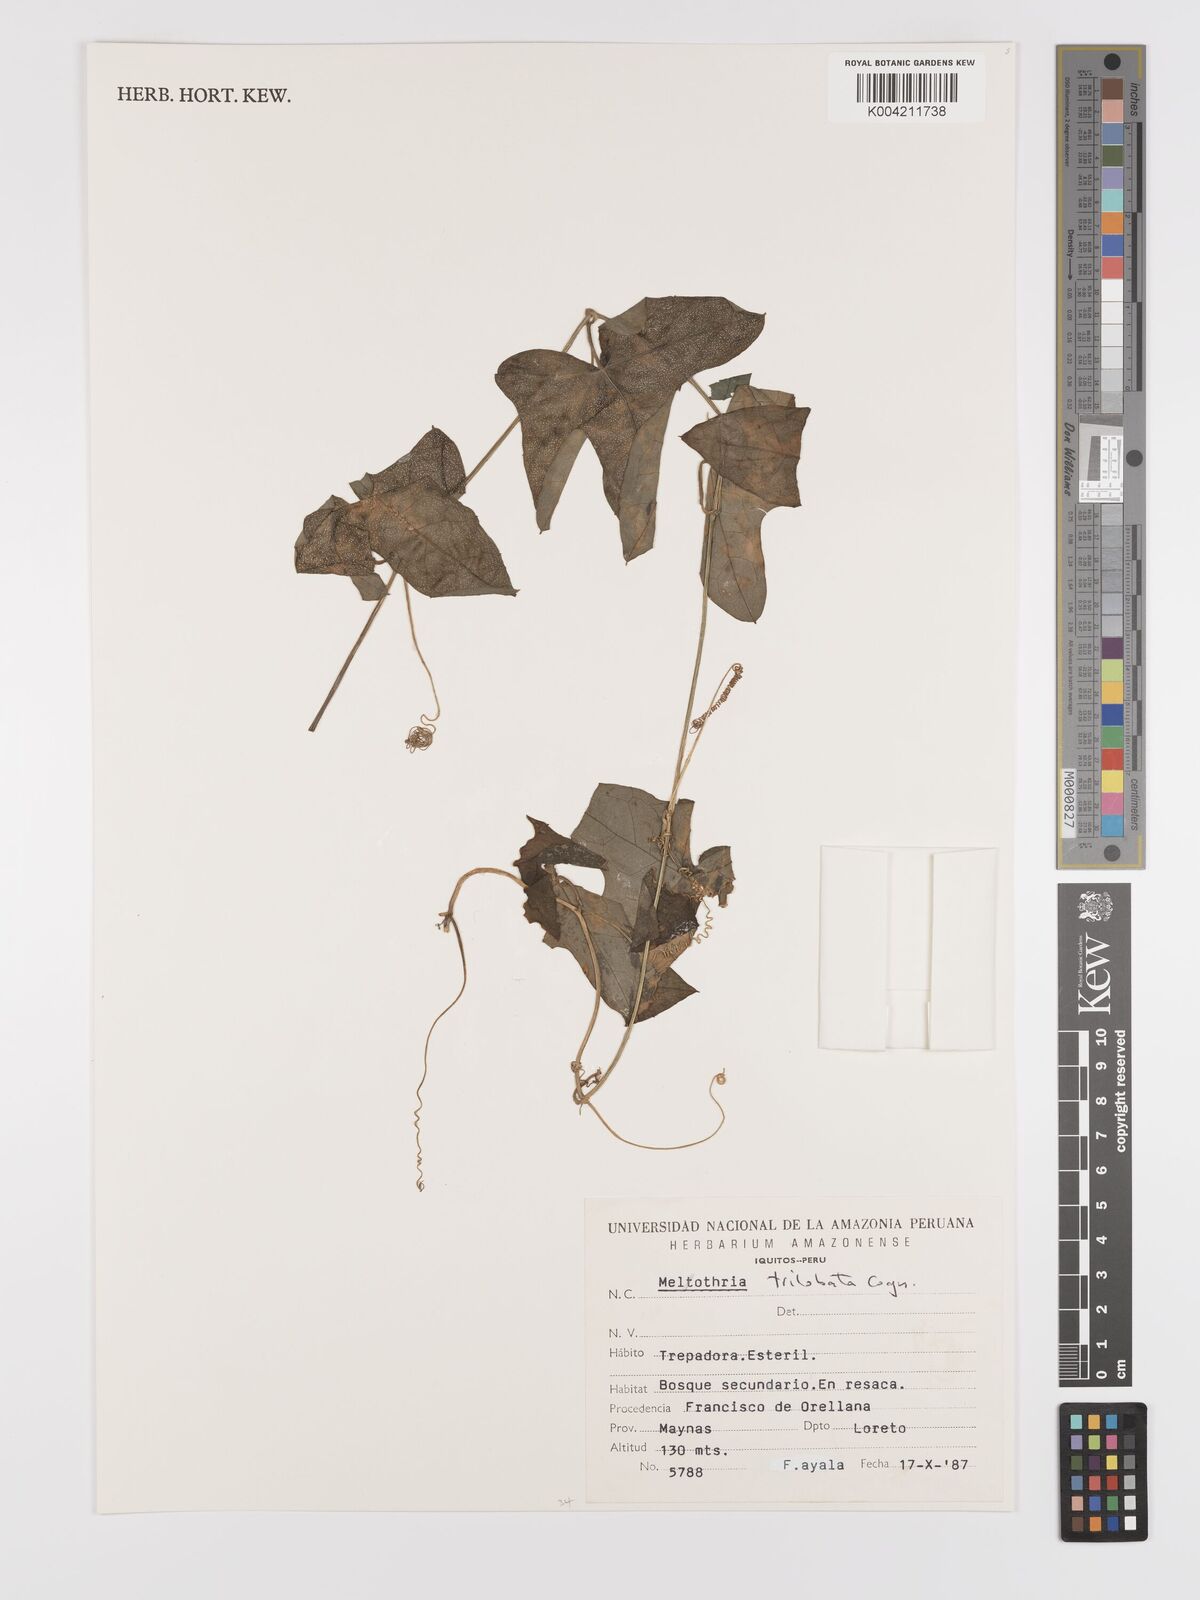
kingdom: Plantae
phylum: Tracheophyta
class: Magnoliopsida
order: Cucurbitales
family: Cucurbitaceae
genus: Melothria
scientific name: Melothria trilobata
